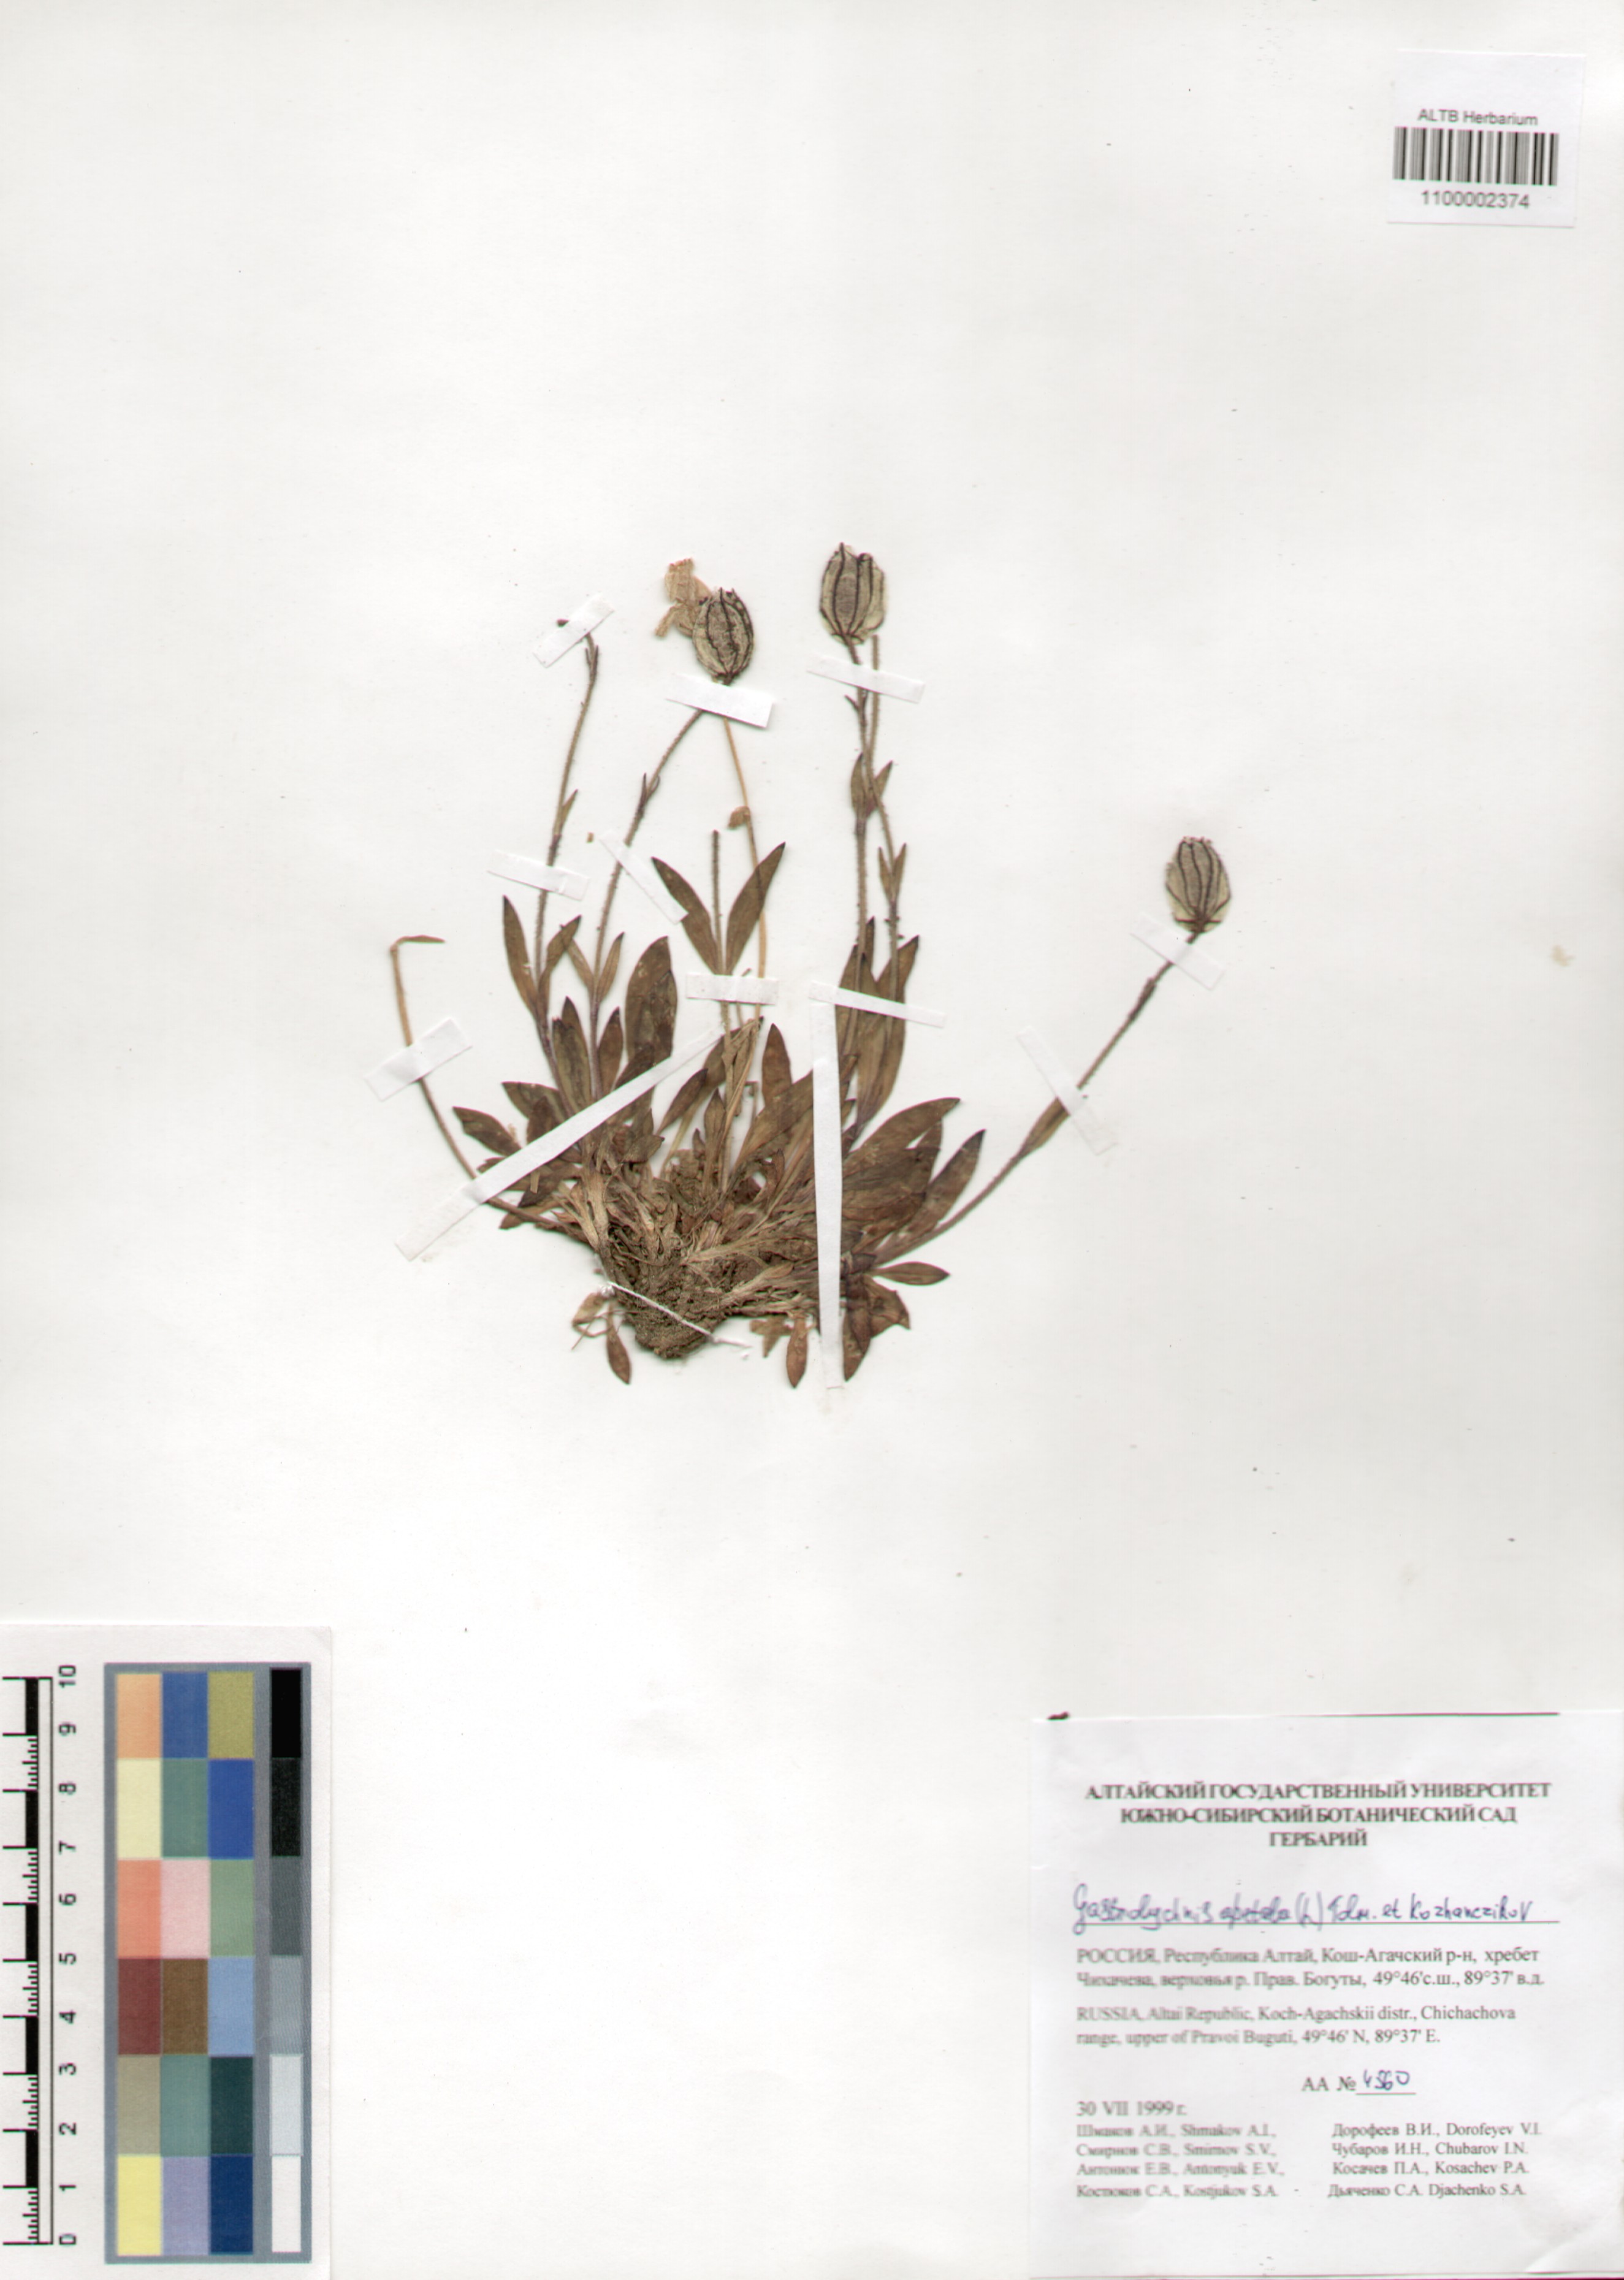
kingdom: Plantae
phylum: Tracheophyta
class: Magnoliopsida
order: Caryophyllales
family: Caryophyllaceae
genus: Silene
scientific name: Silene wahlbergella
